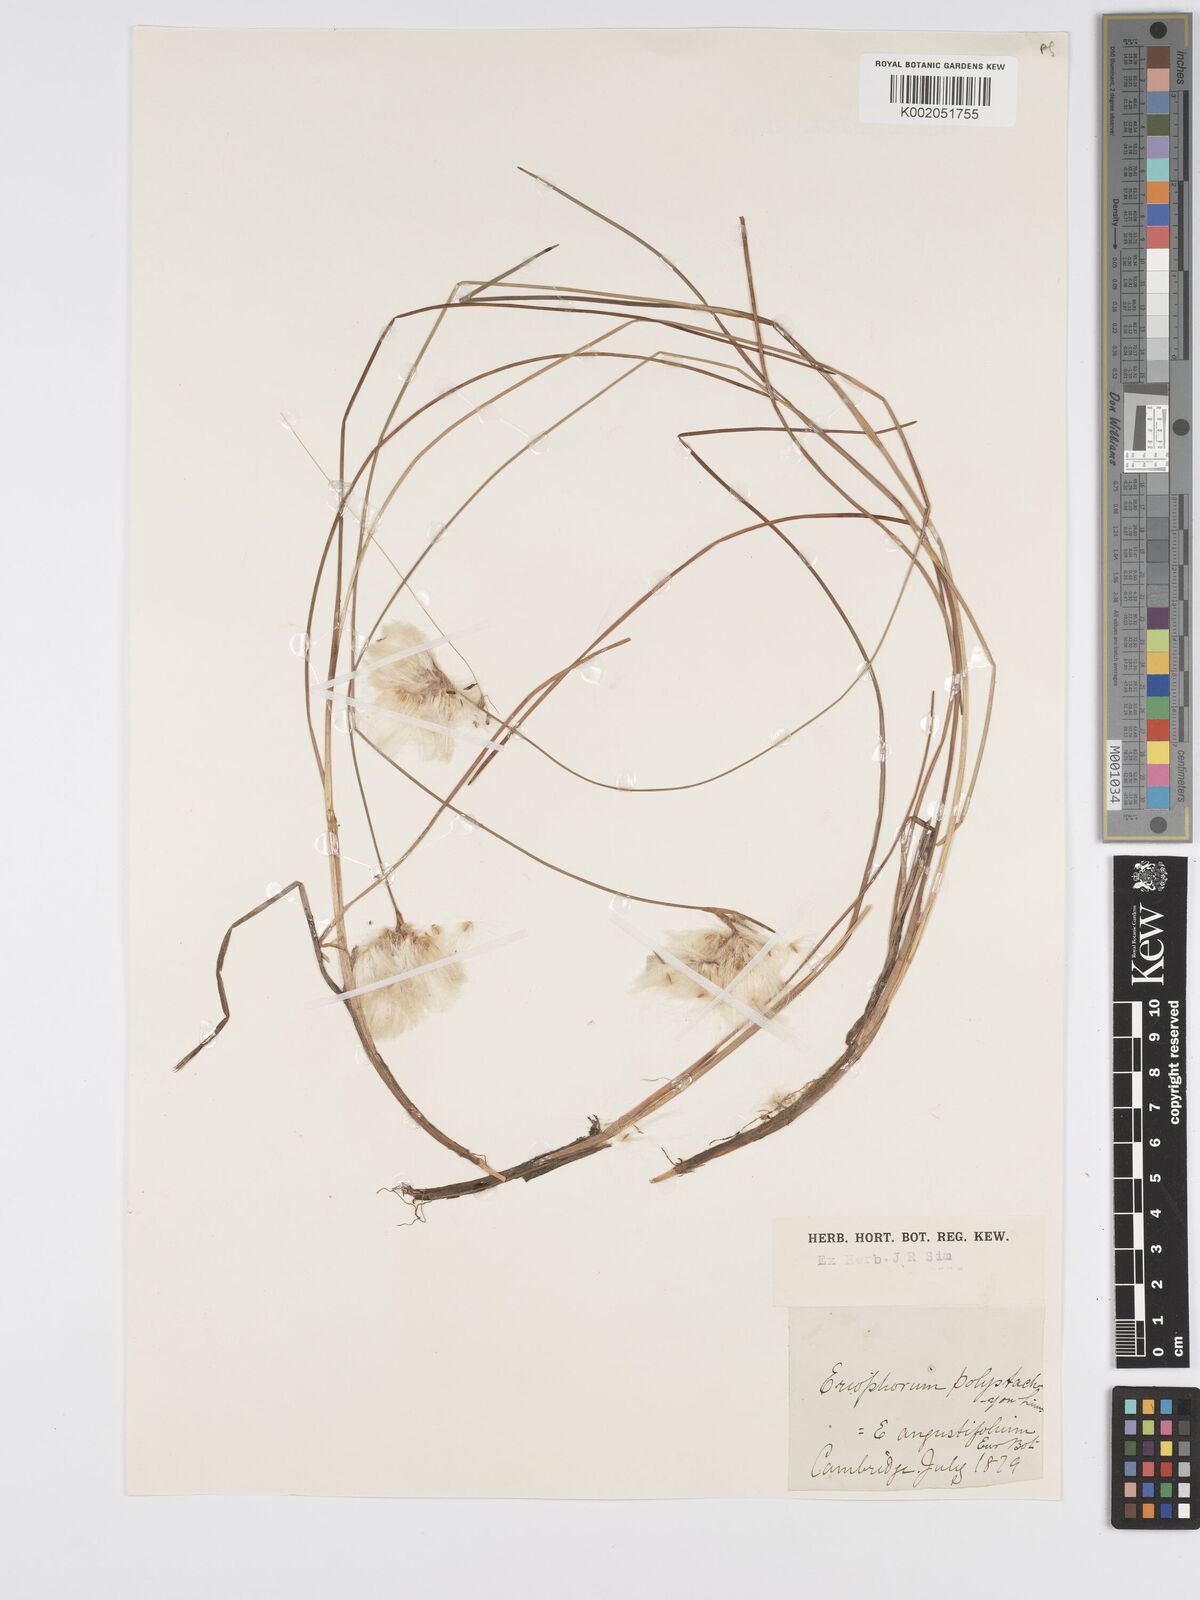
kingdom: Plantae
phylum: Tracheophyta
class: Liliopsida
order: Poales
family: Cyperaceae
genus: Eriophorum
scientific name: Eriophorum angustifolium
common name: Common cottongrass
